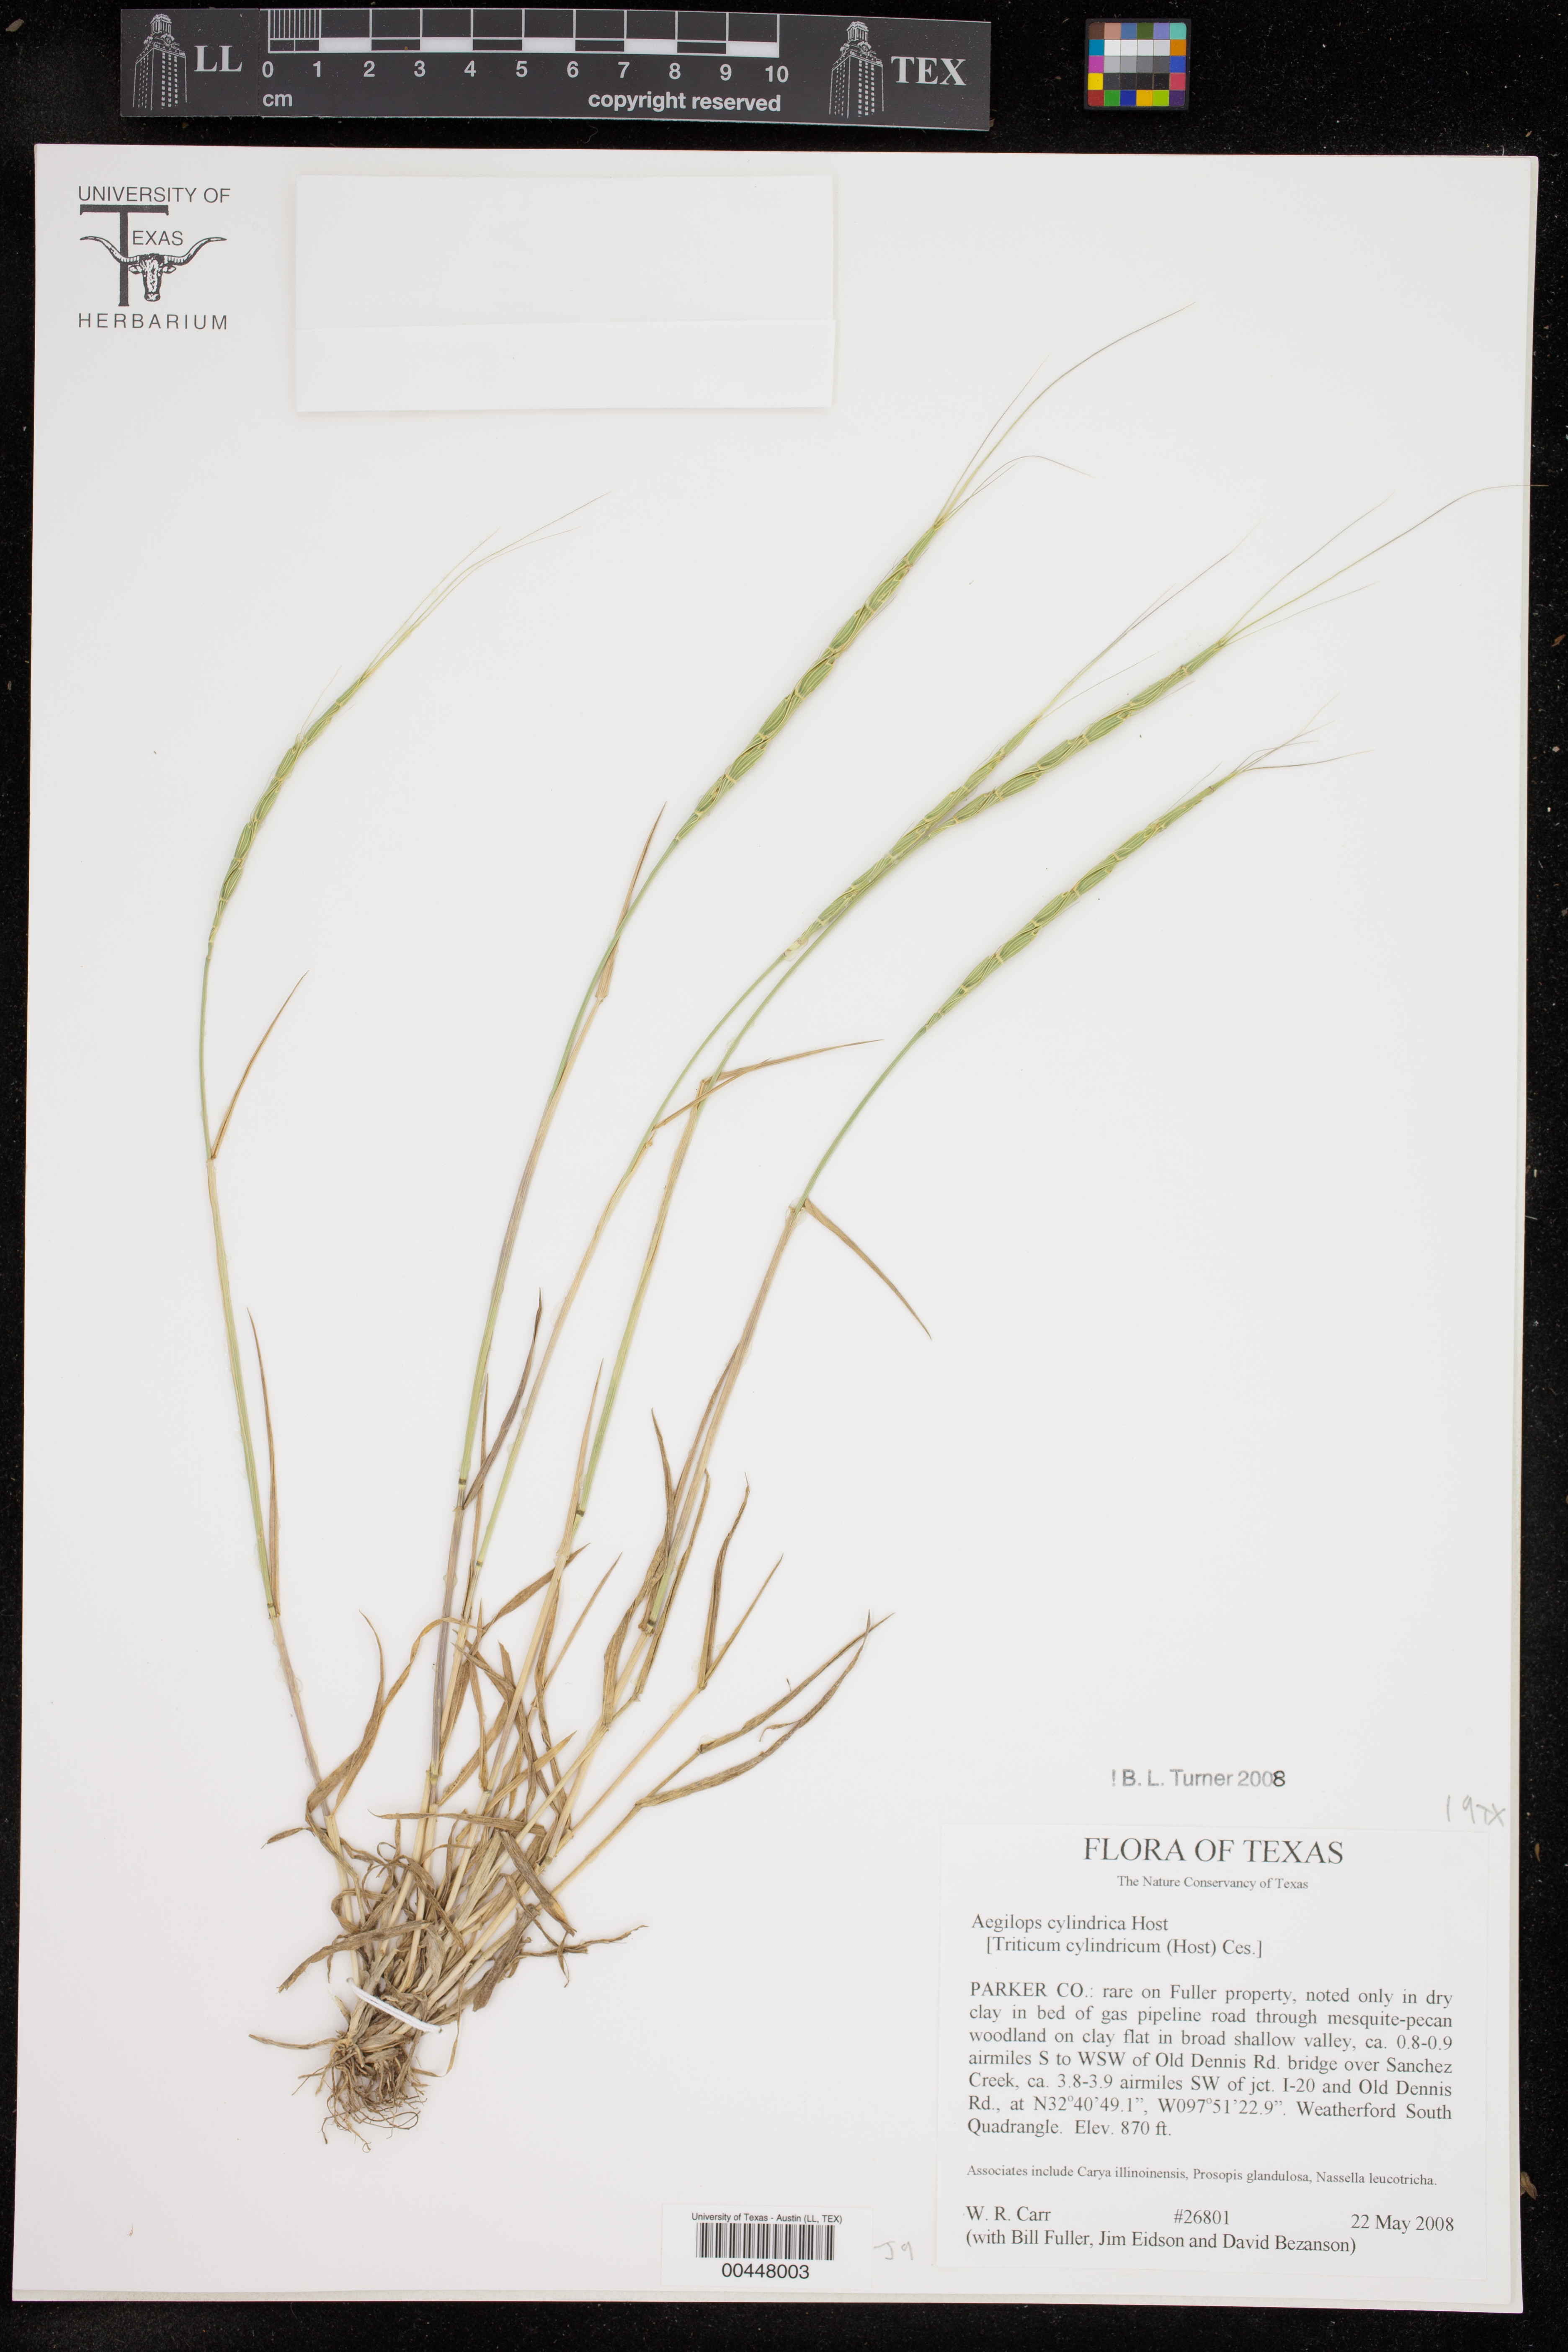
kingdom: Plantae
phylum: Tracheophyta
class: Liliopsida
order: Poales
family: Poaceae
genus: Aegilops
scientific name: Aegilops cylindrica
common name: Jointed goatgrass
